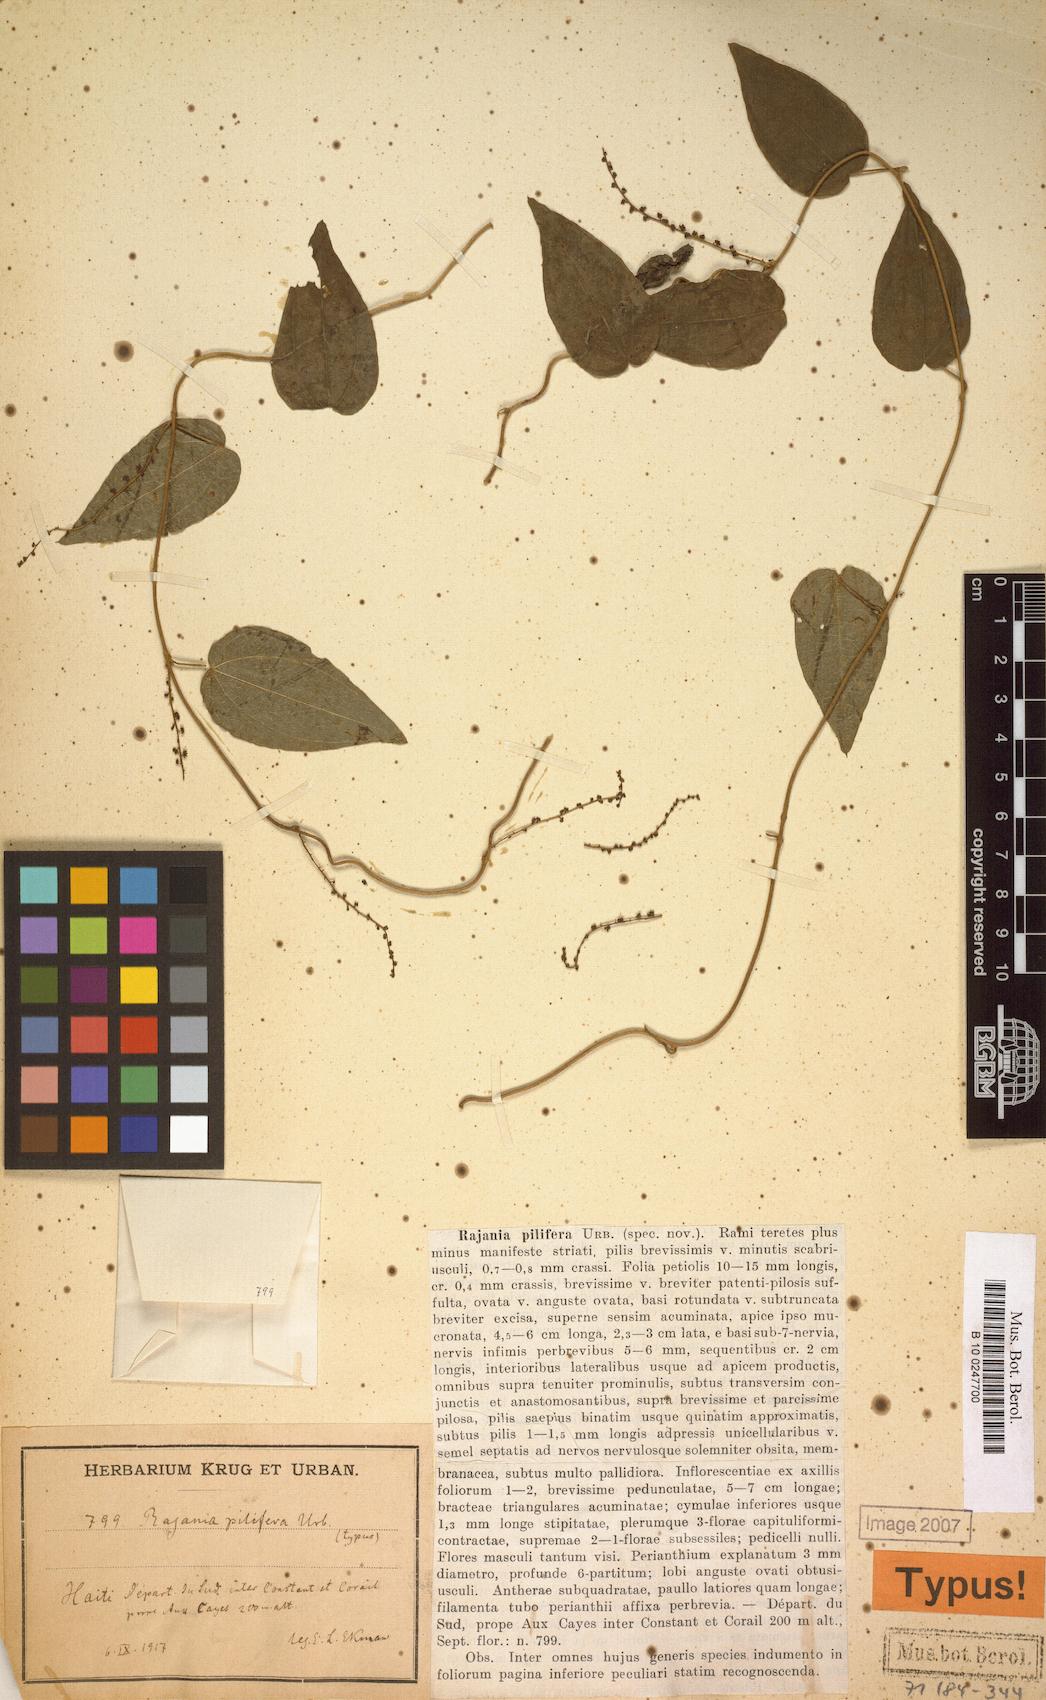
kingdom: Plantae
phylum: Tracheophyta
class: Liliopsida
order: Dioscoreales
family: Dioscoreaceae
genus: Dioscorea
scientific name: Dioscorea pilifera
